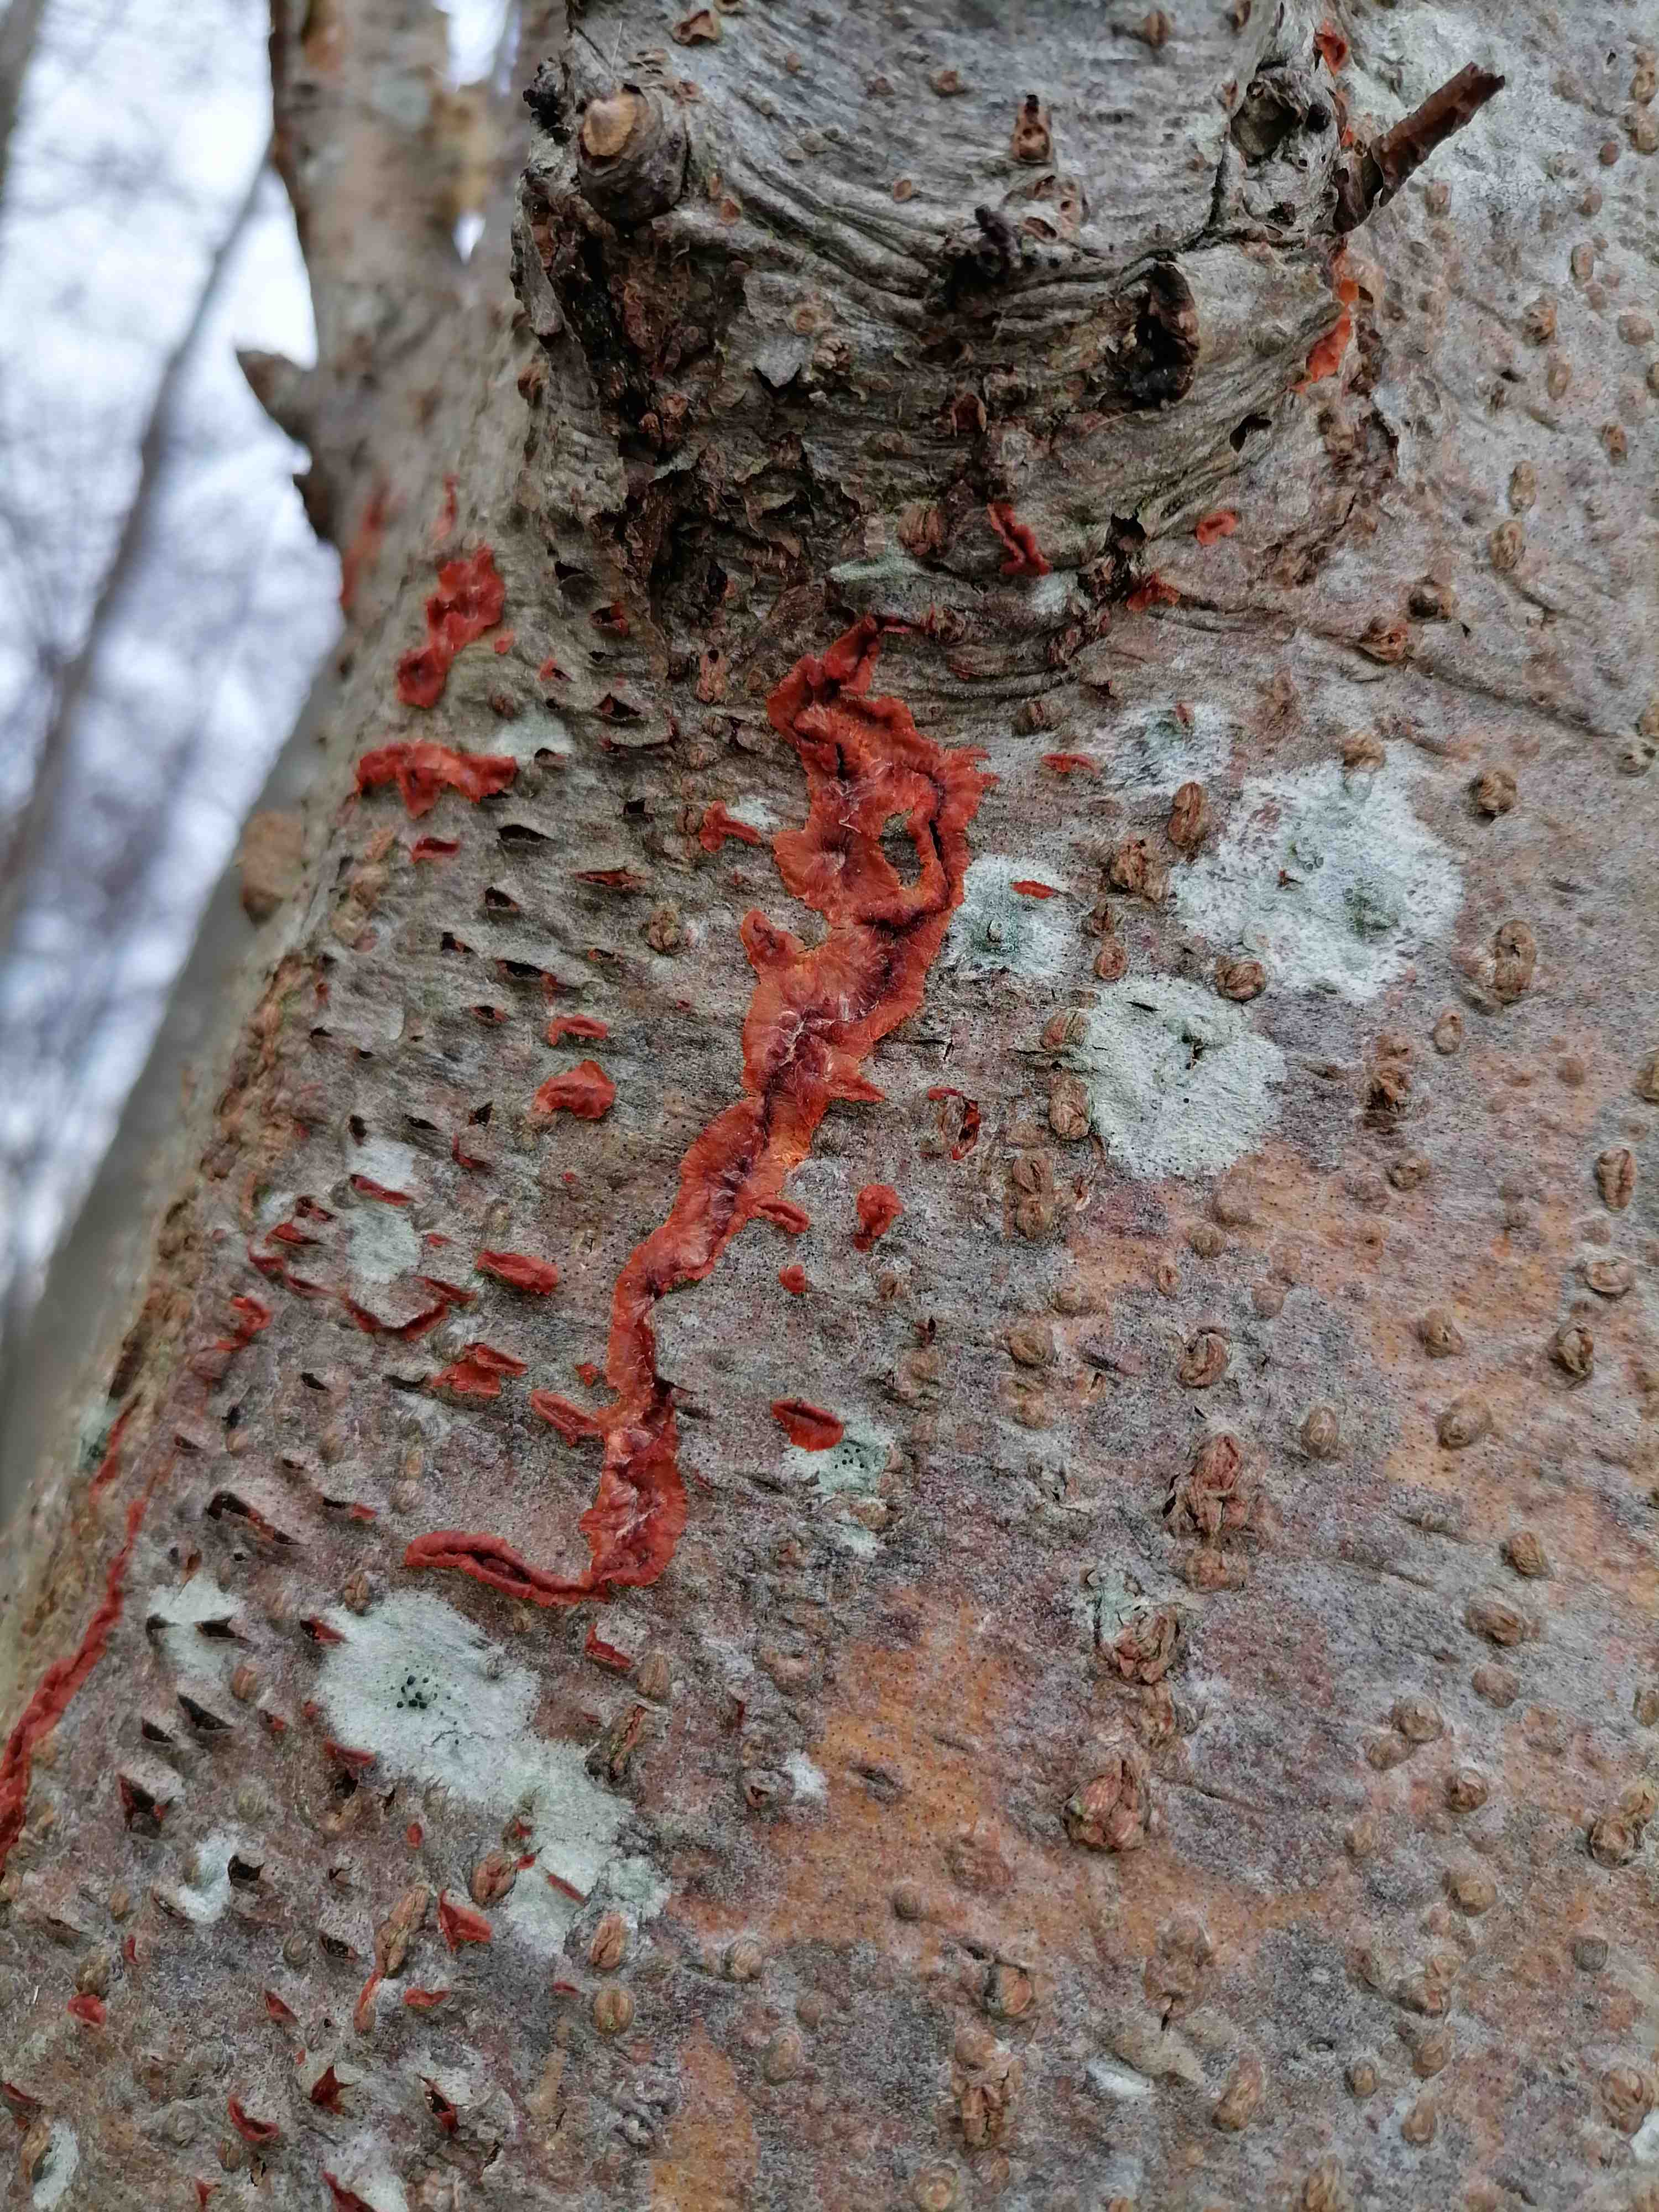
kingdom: Fungi
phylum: Basidiomycota
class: Agaricomycetes
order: Polyporales
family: Meruliaceae
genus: Phlebia
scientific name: Phlebia radiata
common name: stråle-åresvamp
